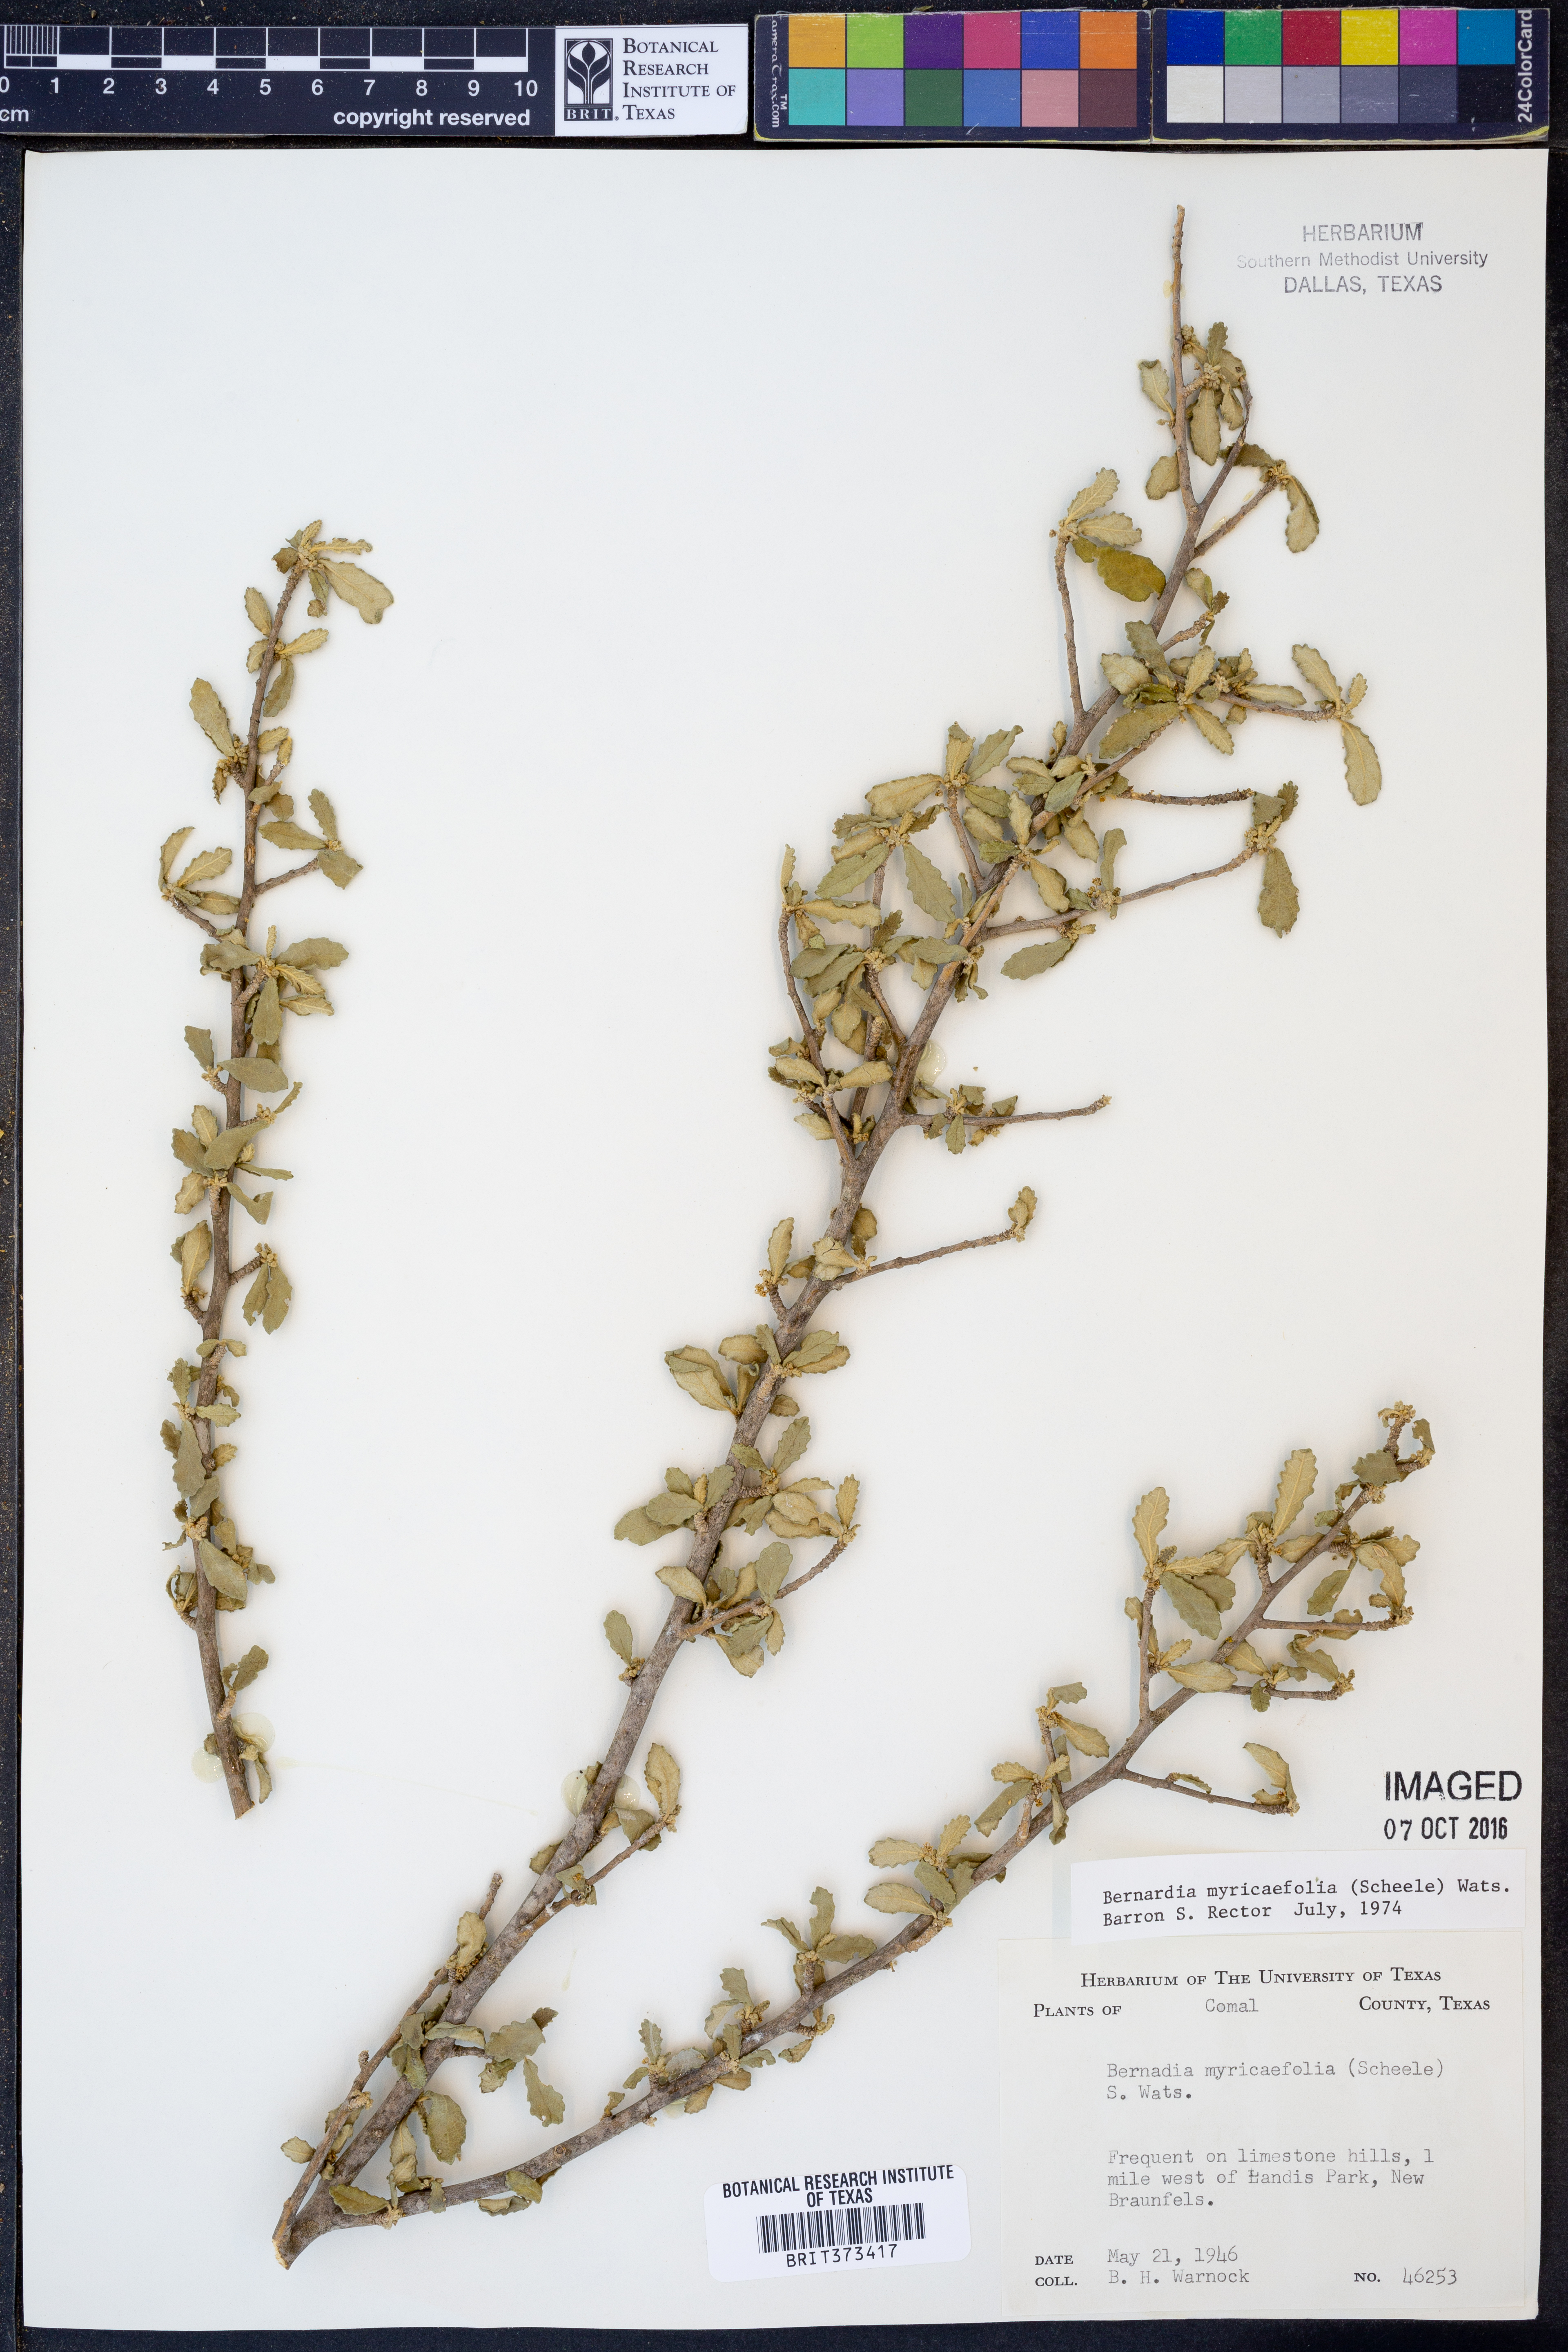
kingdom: Plantae
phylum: Tracheophyta
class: Magnoliopsida
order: Malpighiales
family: Euphorbiaceae
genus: Bernardia
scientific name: Bernardia myricifolia
